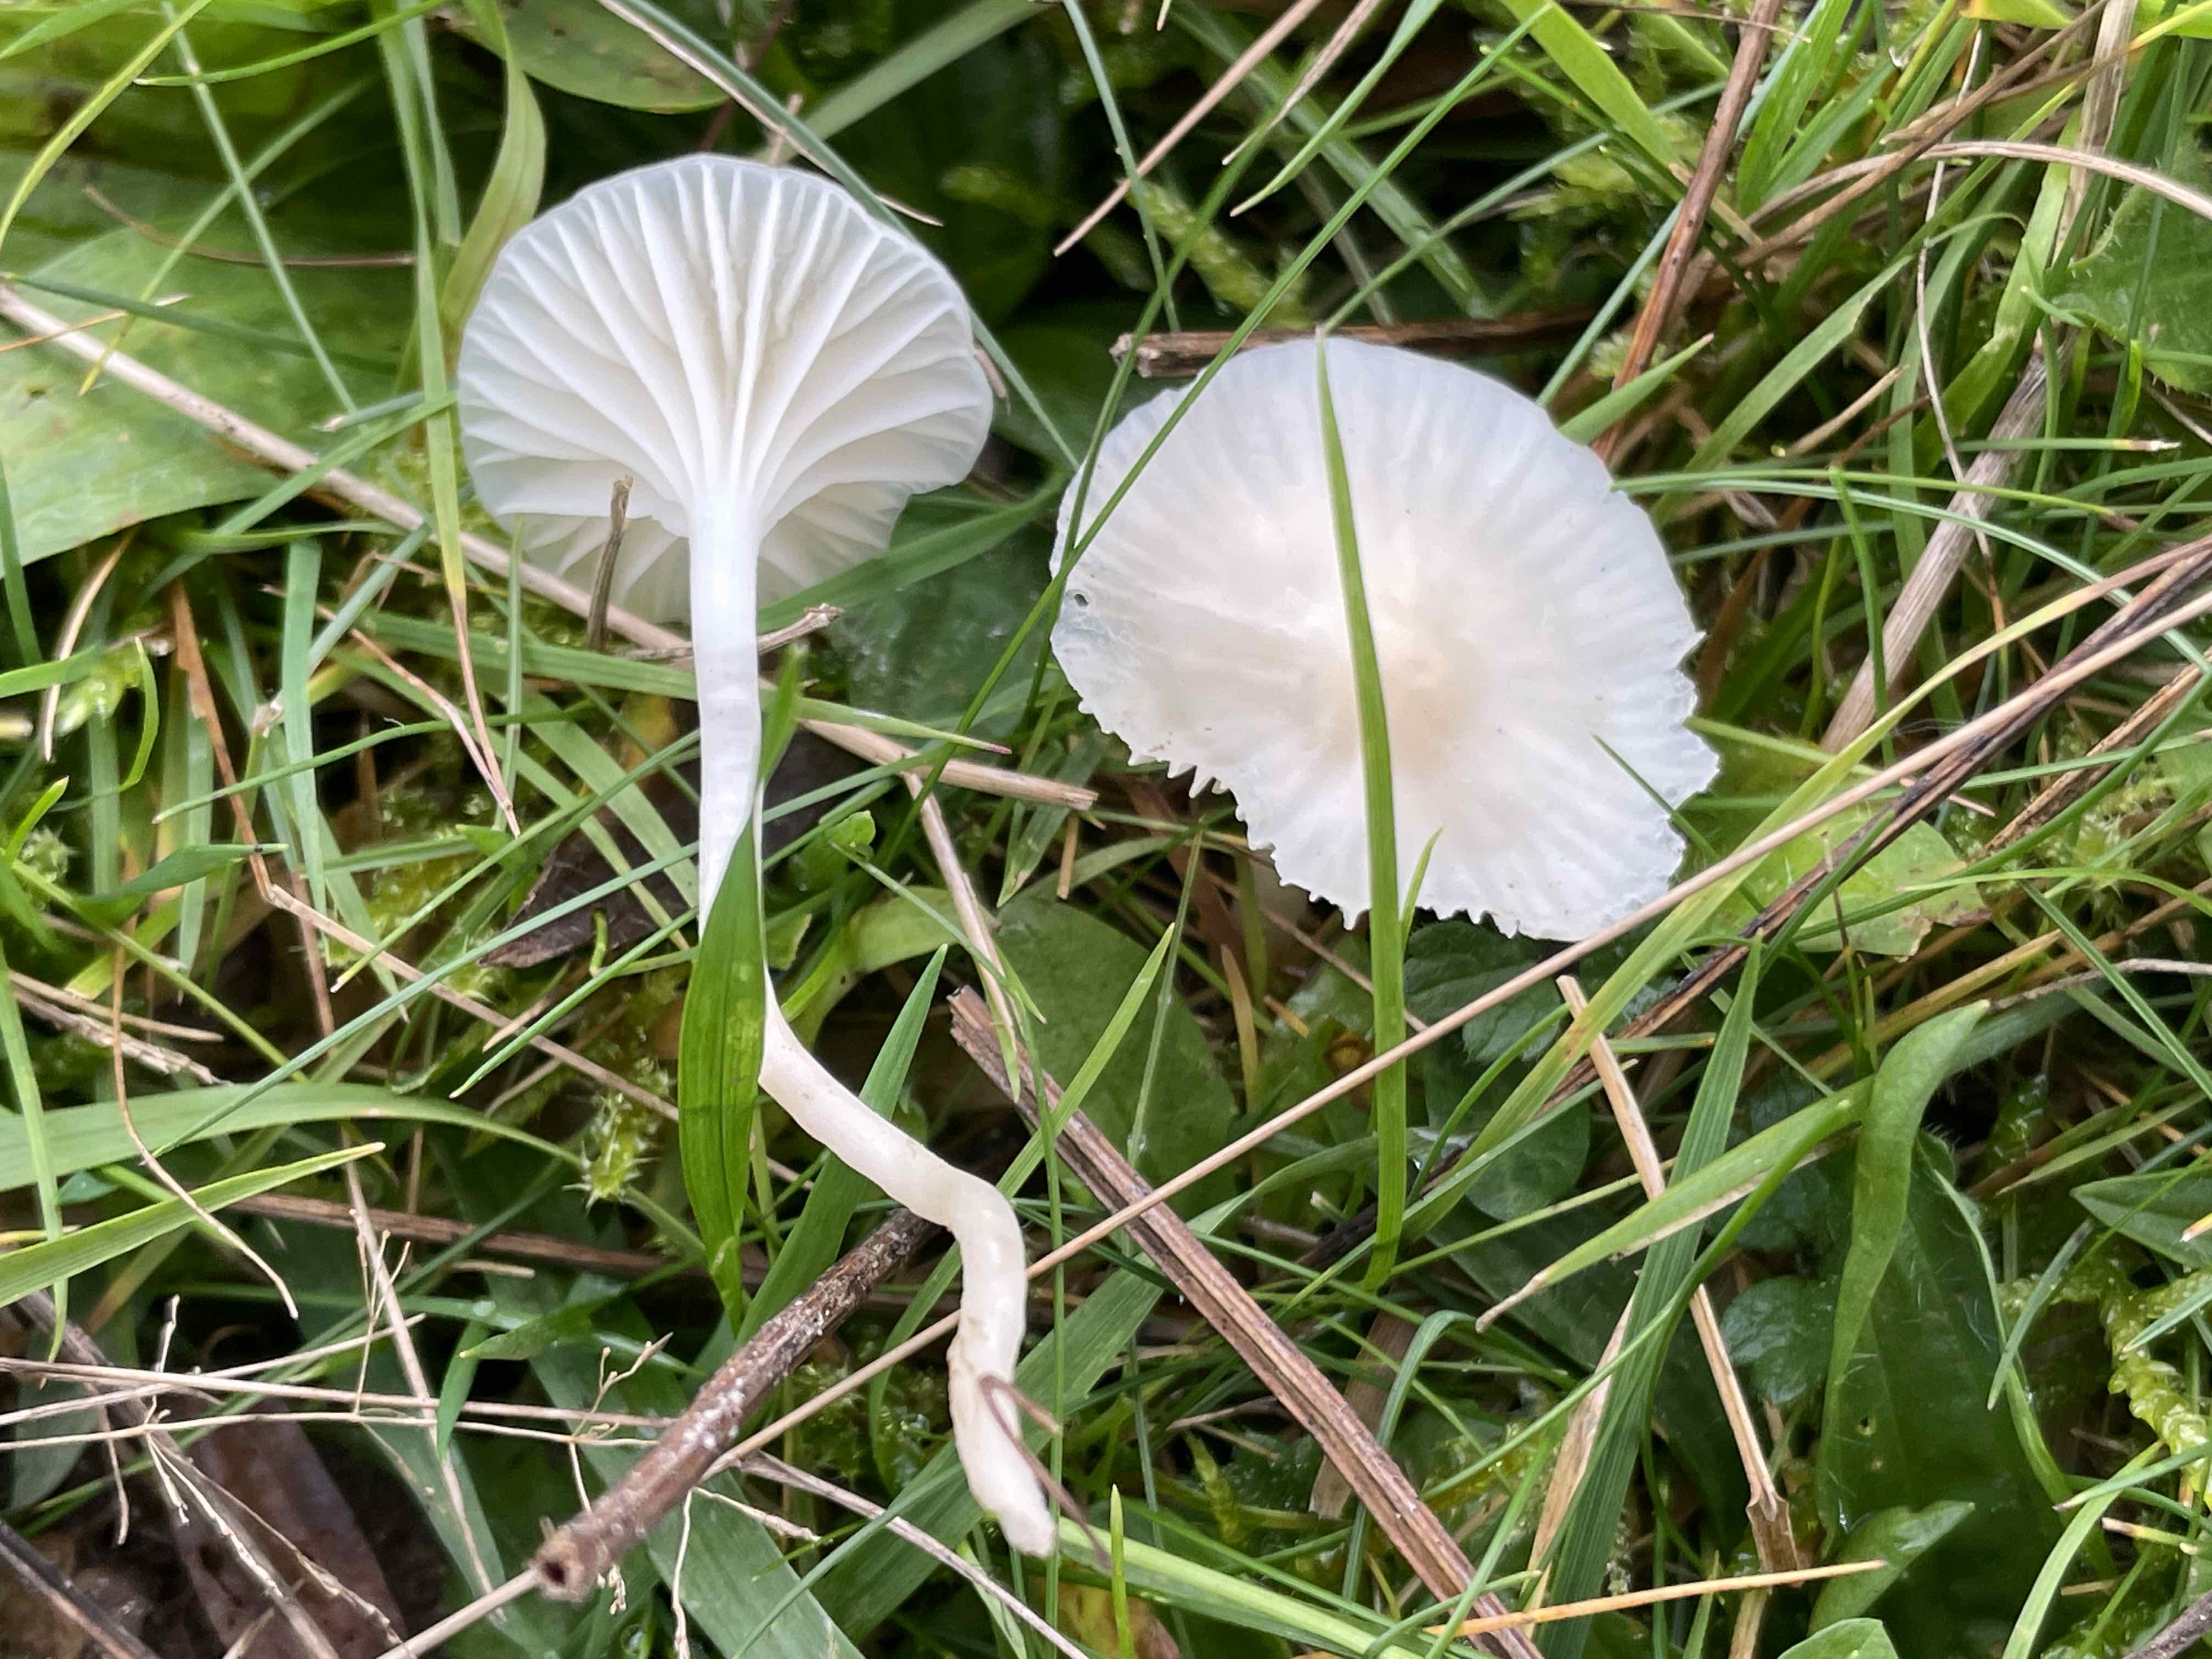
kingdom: Fungi
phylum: Basidiomycota
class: Agaricomycetes
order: Agaricales
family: Hygrophoraceae
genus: Cuphophyllus
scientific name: Cuphophyllus virgineus
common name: snehvid vokshat
